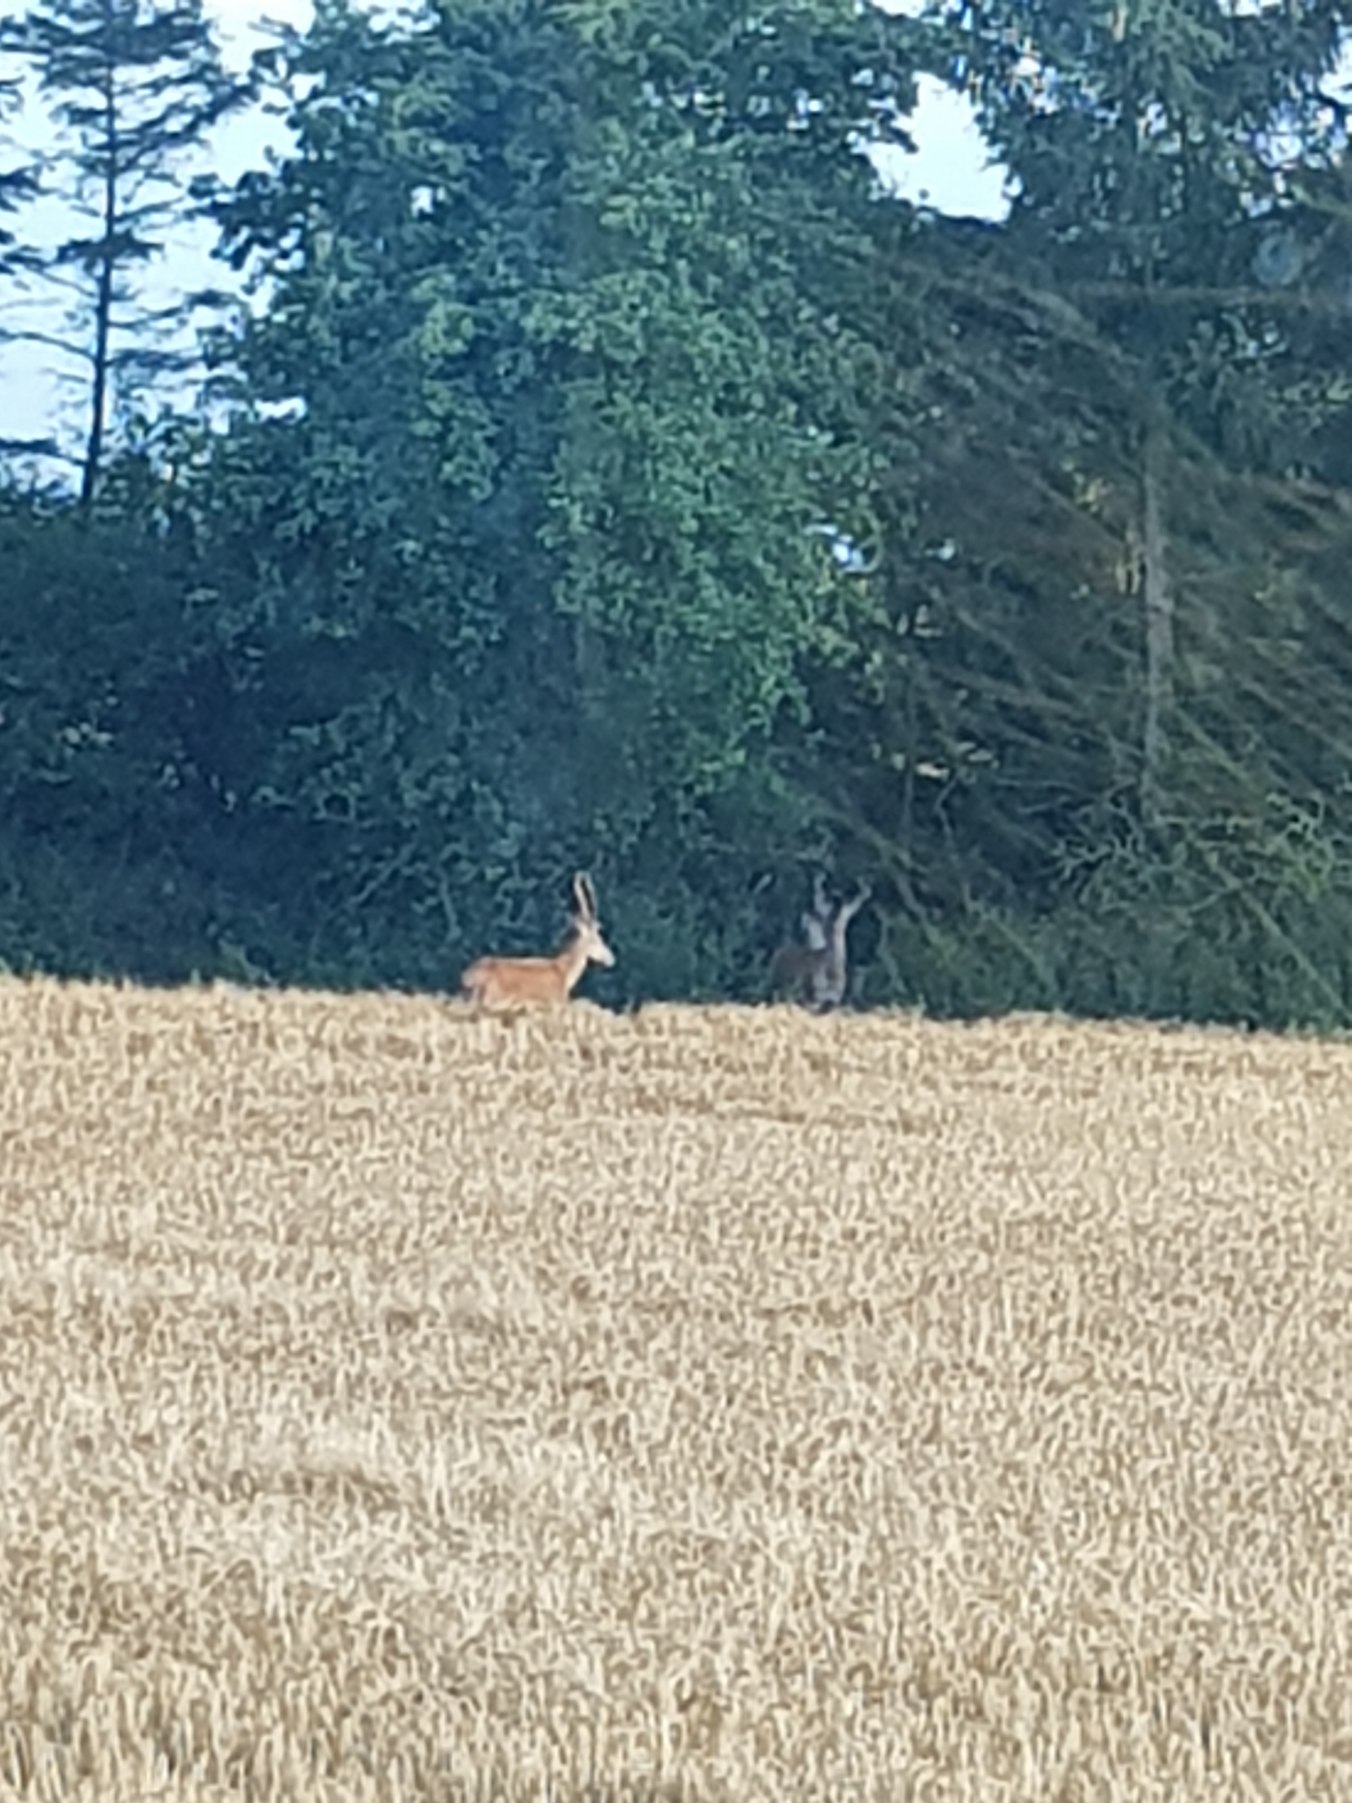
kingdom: Animalia
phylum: Chordata
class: Mammalia
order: Artiodactyla
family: Cervidae
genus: Cervus
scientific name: Cervus elaphus
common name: Krondyr
